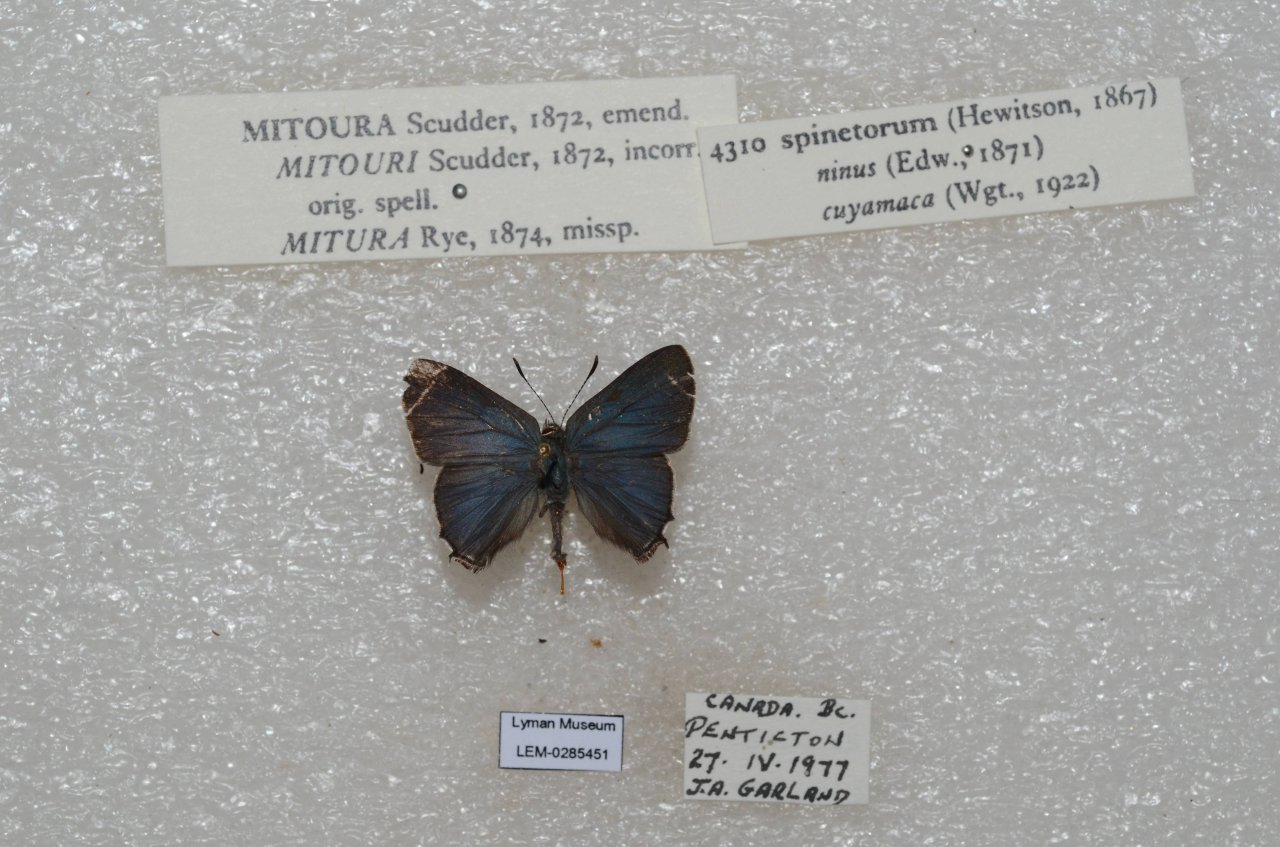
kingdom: Animalia
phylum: Arthropoda
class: Insecta
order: Lepidoptera
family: Lycaenidae
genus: Mitoura
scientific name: Mitoura spinetorum
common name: Thicket Hairstreak
